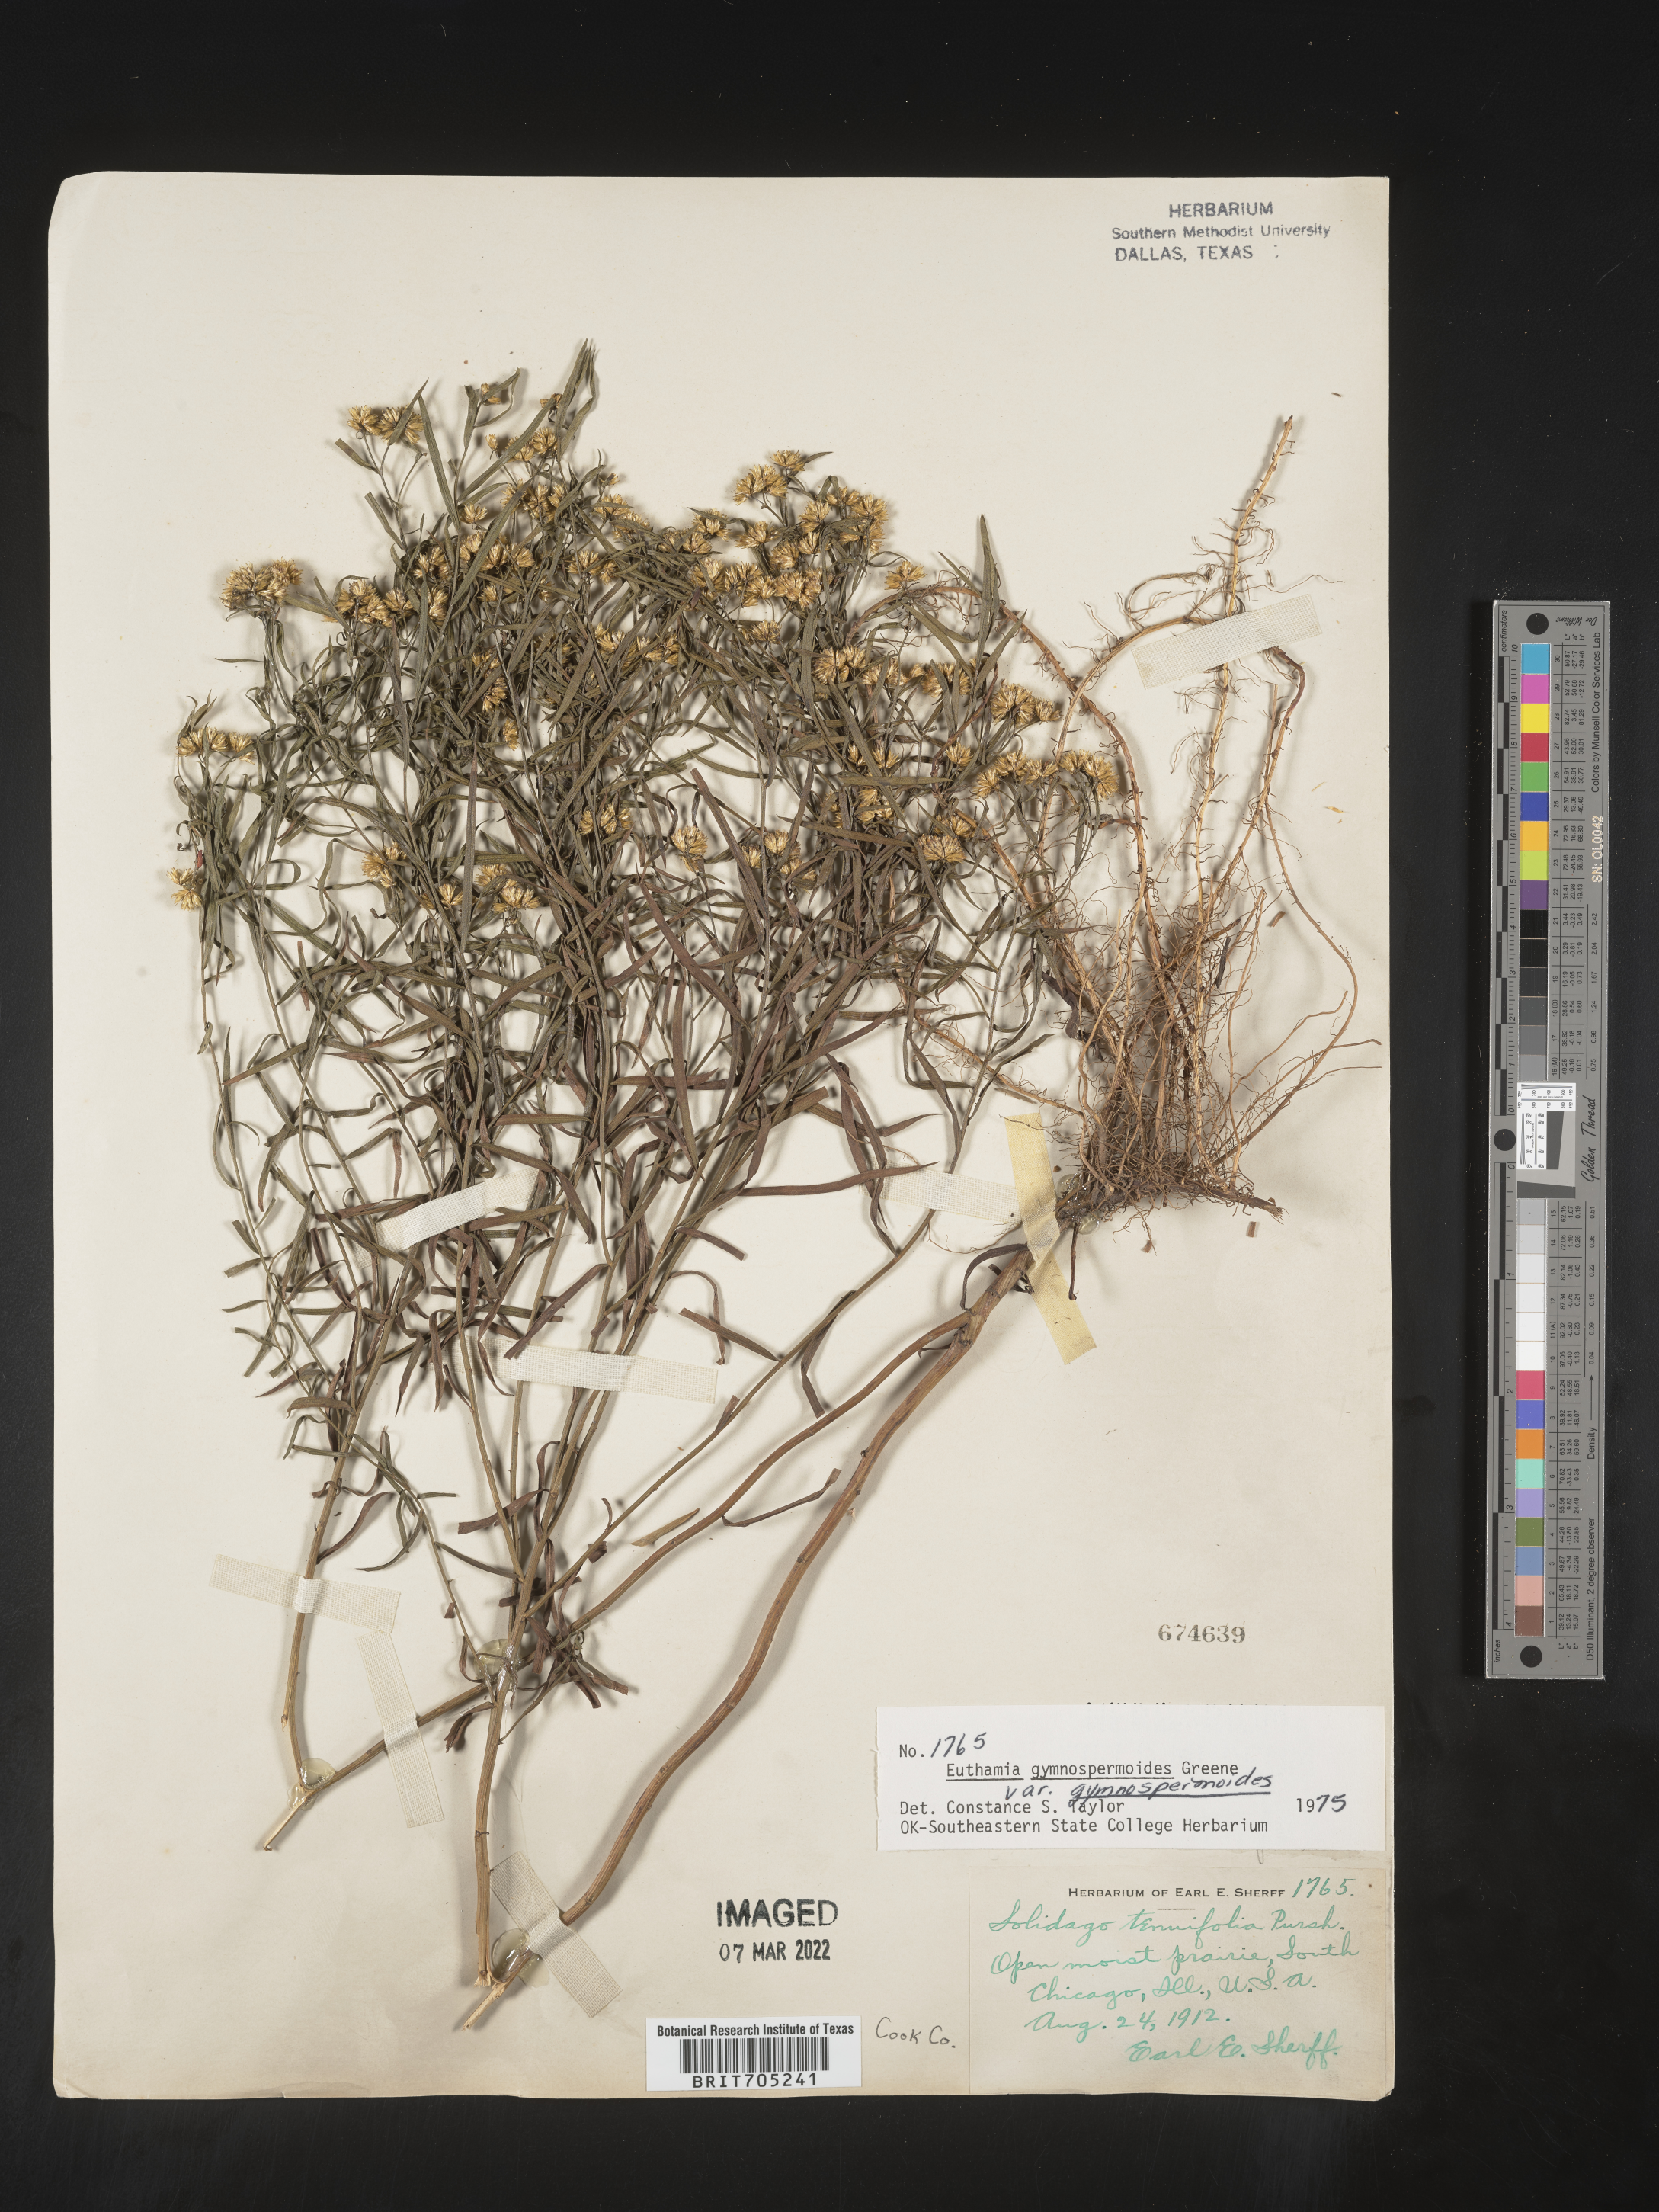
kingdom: Plantae
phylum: Tracheophyta
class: Magnoliopsida
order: Asterales
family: Asteraceae
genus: Euthamia
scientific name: Euthamia gymnospermoides
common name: Great plains goldentop
